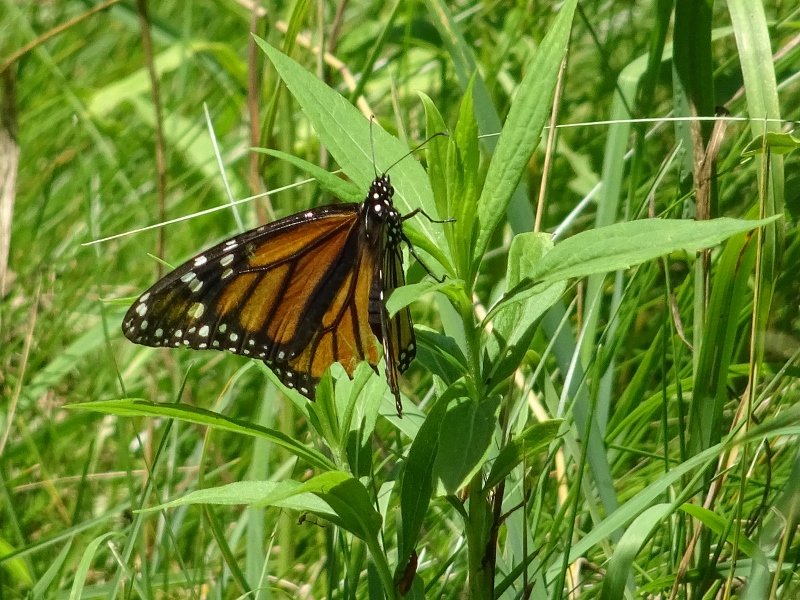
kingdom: Animalia
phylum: Arthropoda
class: Insecta
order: Lepidoptera
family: Nymphalidae
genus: Danaus
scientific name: Danaus plexippus
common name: Monarch
